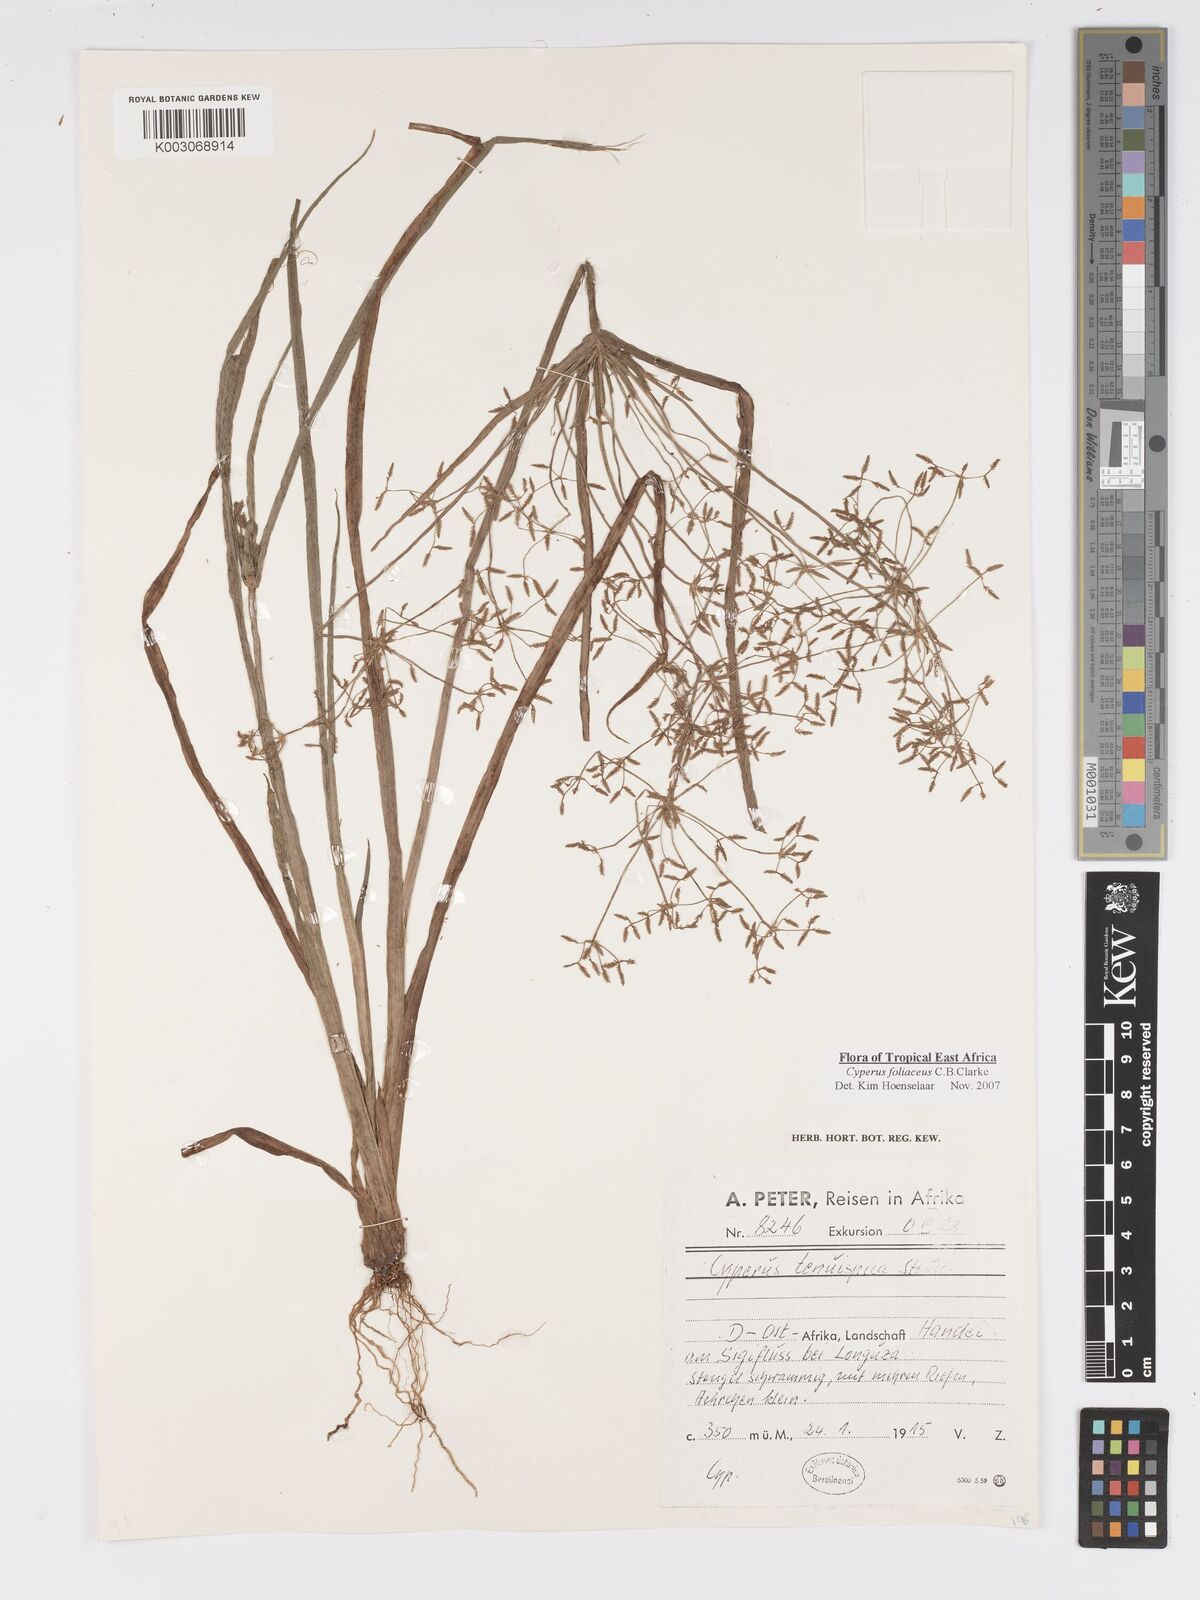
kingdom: Plantae
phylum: Tracheophyta
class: Liliopsida
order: Poales
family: Cyperaceae
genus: Cyperus
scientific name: Cyperus foliaceus
